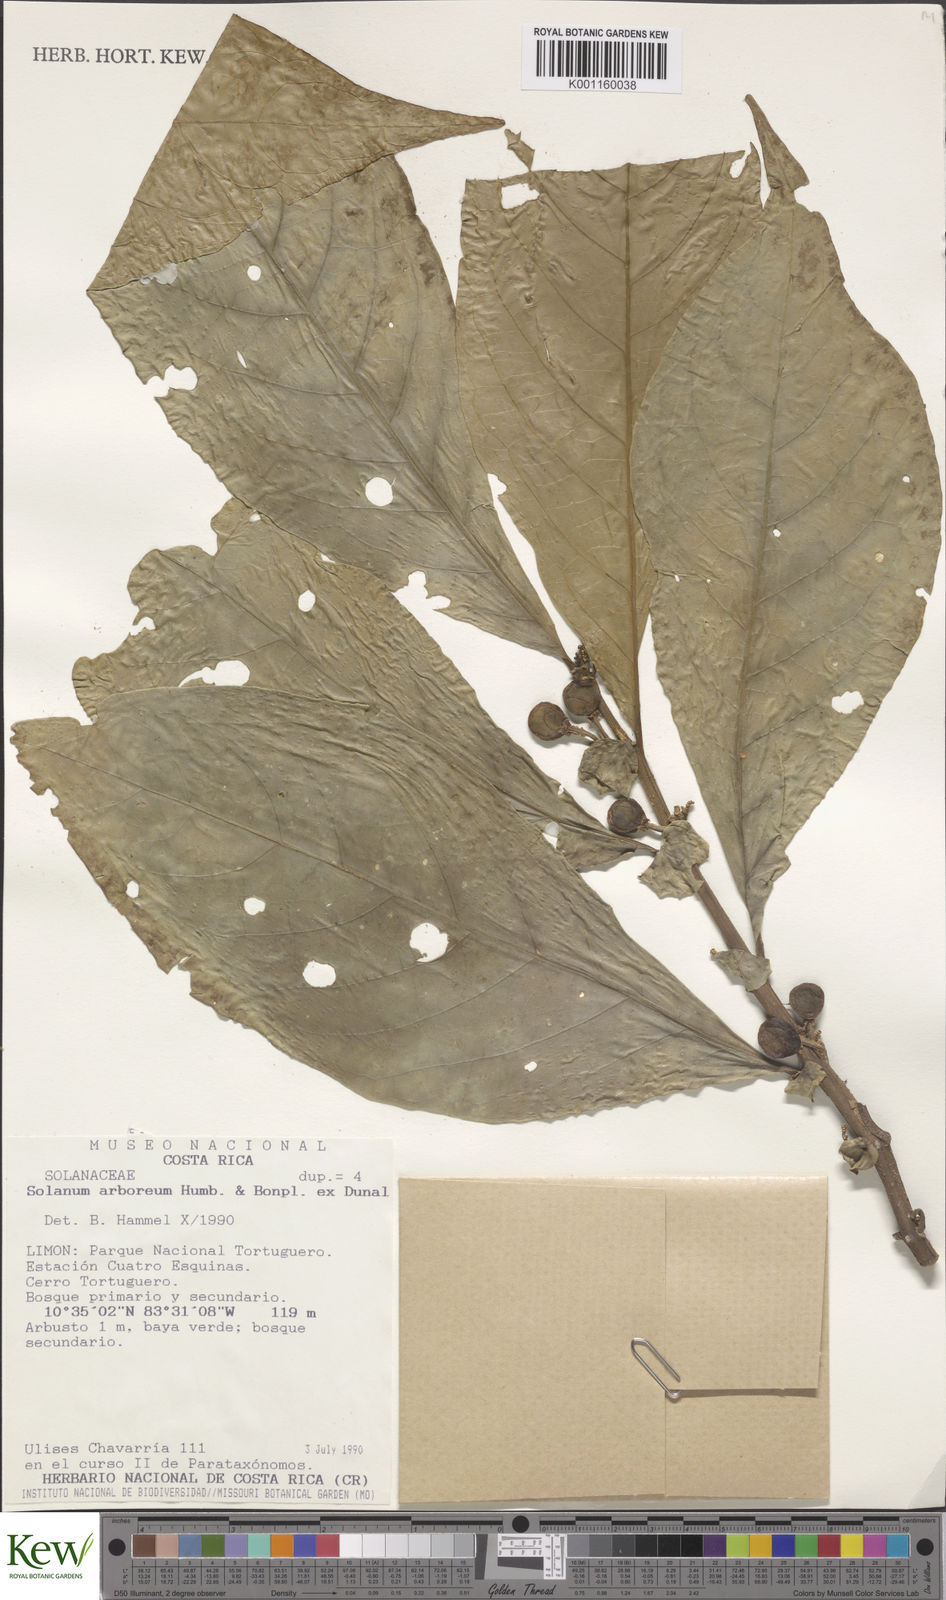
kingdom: Plantae
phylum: Tracheophyta
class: Magnoliopsida
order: Solanales
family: Solanaceae
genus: Solanum
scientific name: Solanum arboreum
